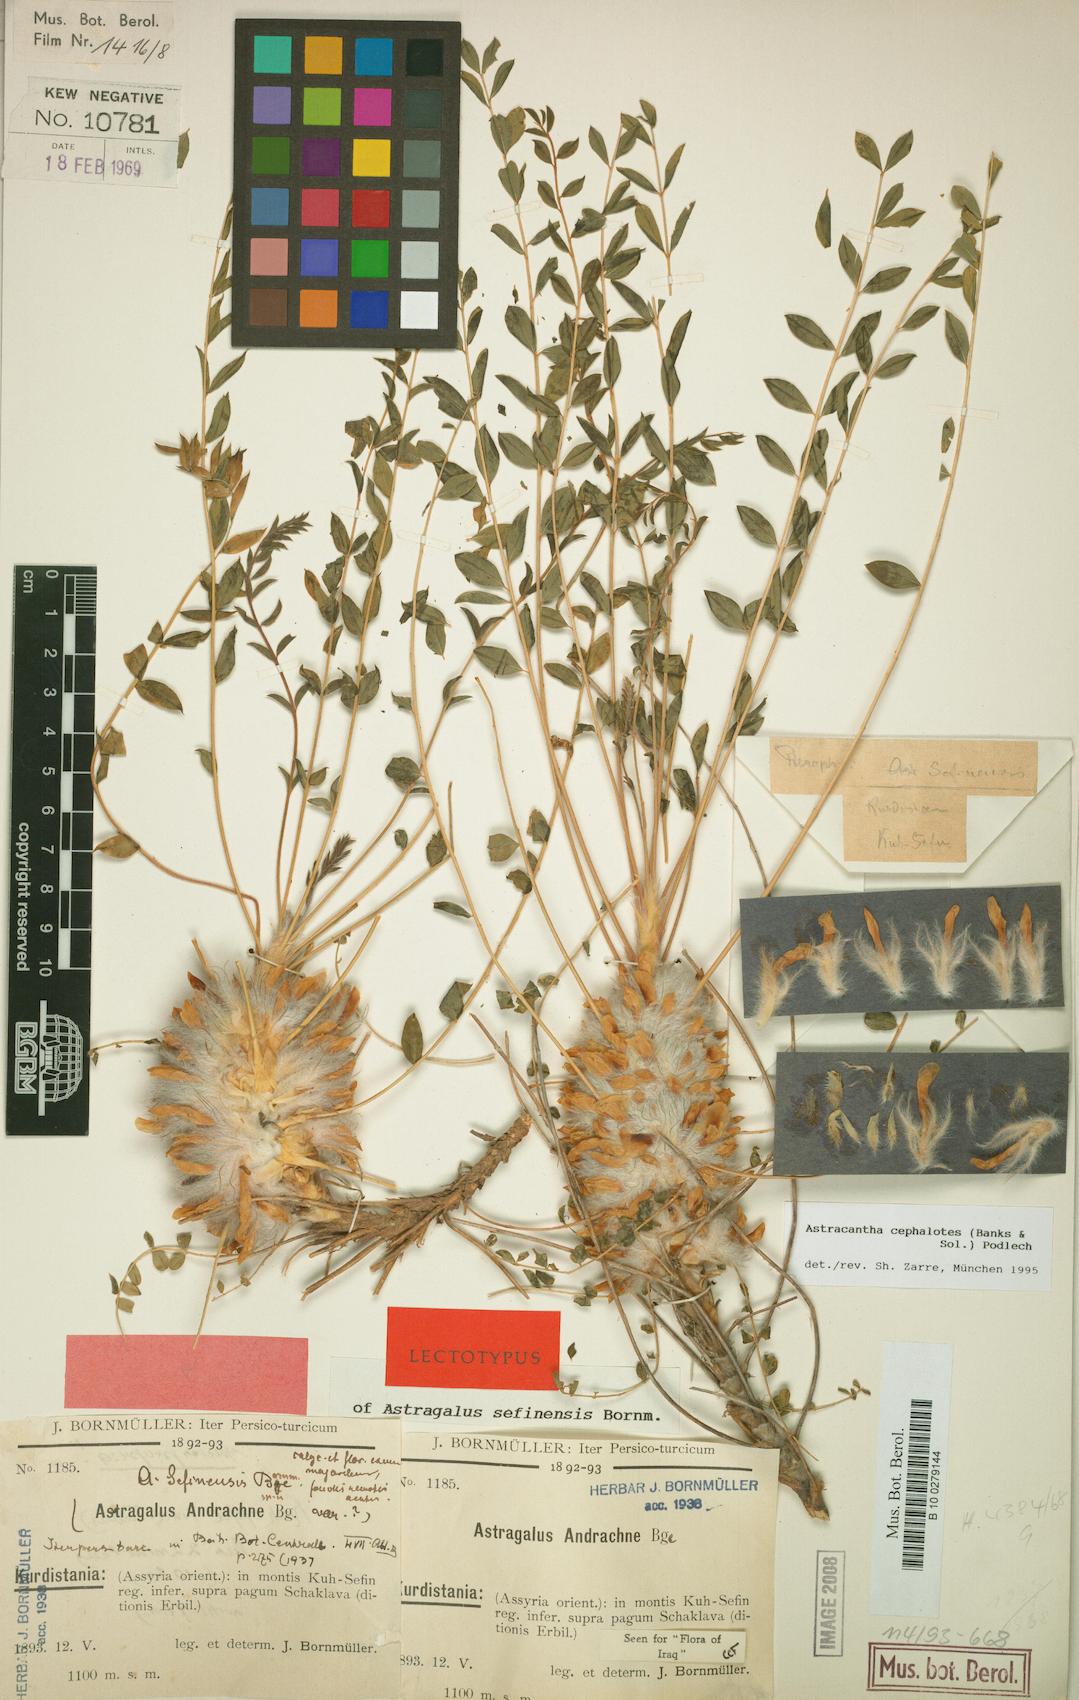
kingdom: Plantae
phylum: Tracheophyta
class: Magnoliopsida
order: Fabales
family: Fabaceae
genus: Astragalus
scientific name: Astragalus cephalotes
